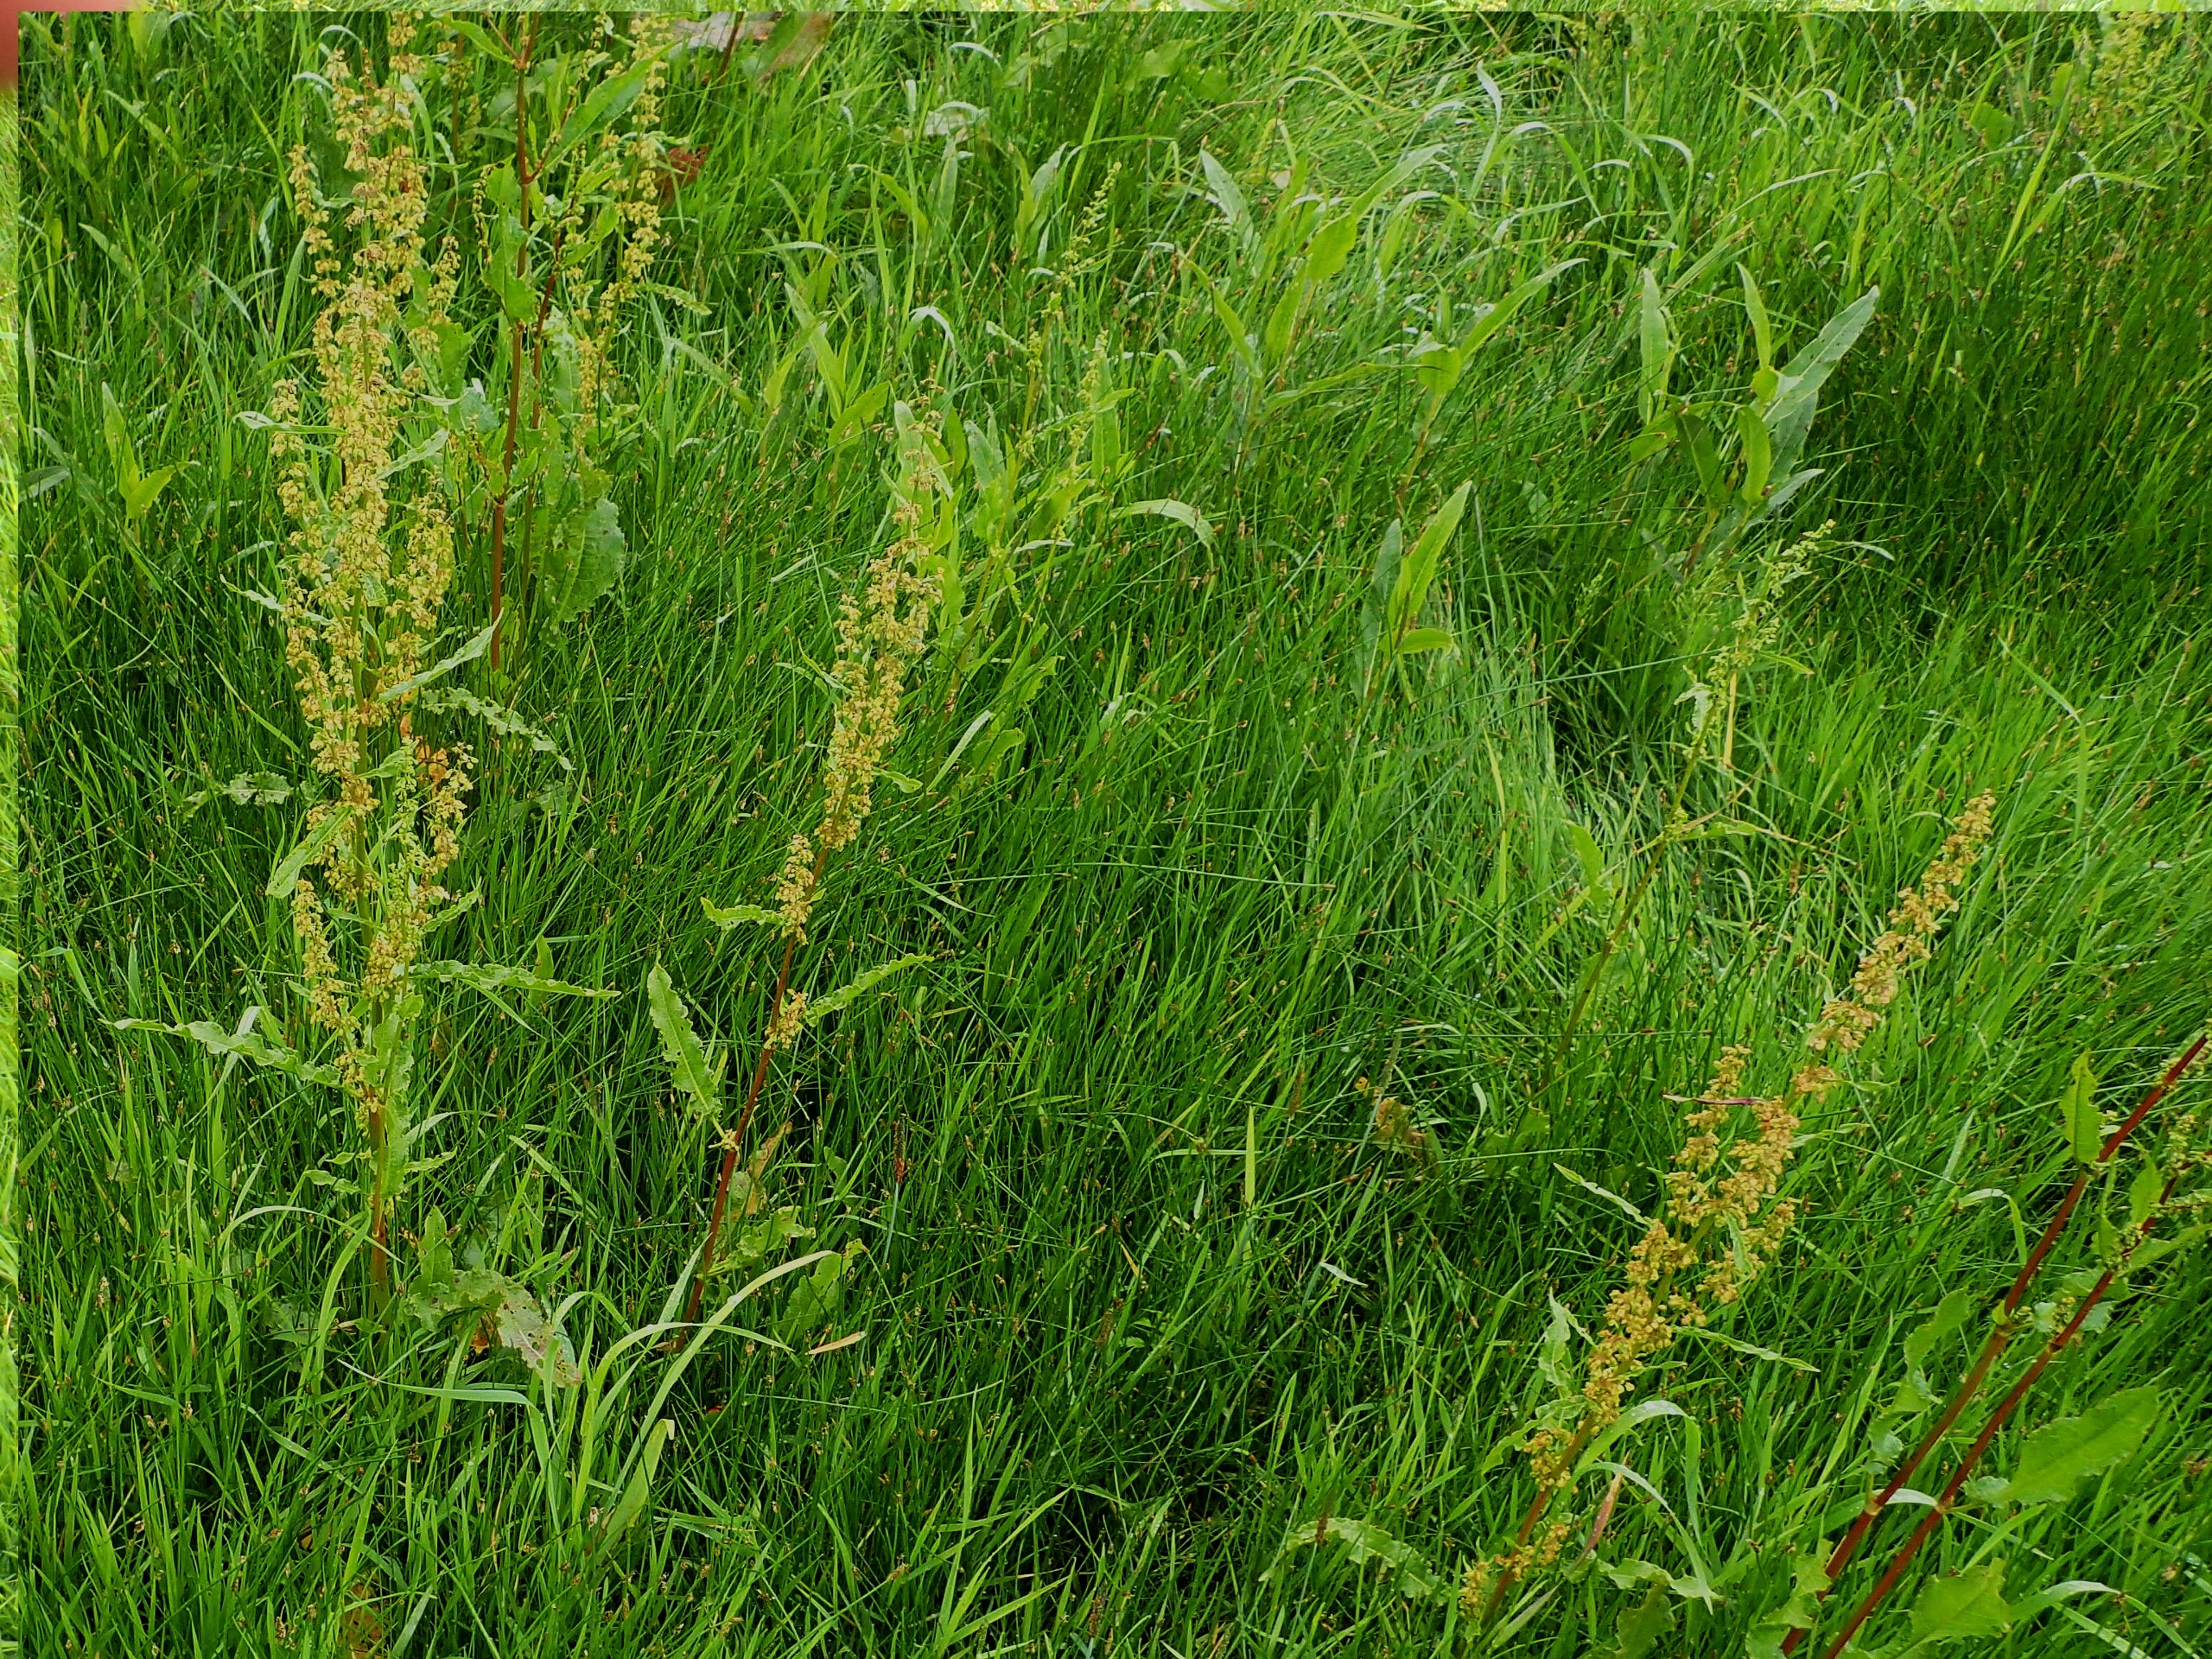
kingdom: Plantae
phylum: Tracheophyta
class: Magnoliopsida
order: Caryophyllales
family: Polygonaceae
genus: Rumex
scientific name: Rumex crispus
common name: Kruset skræppe
